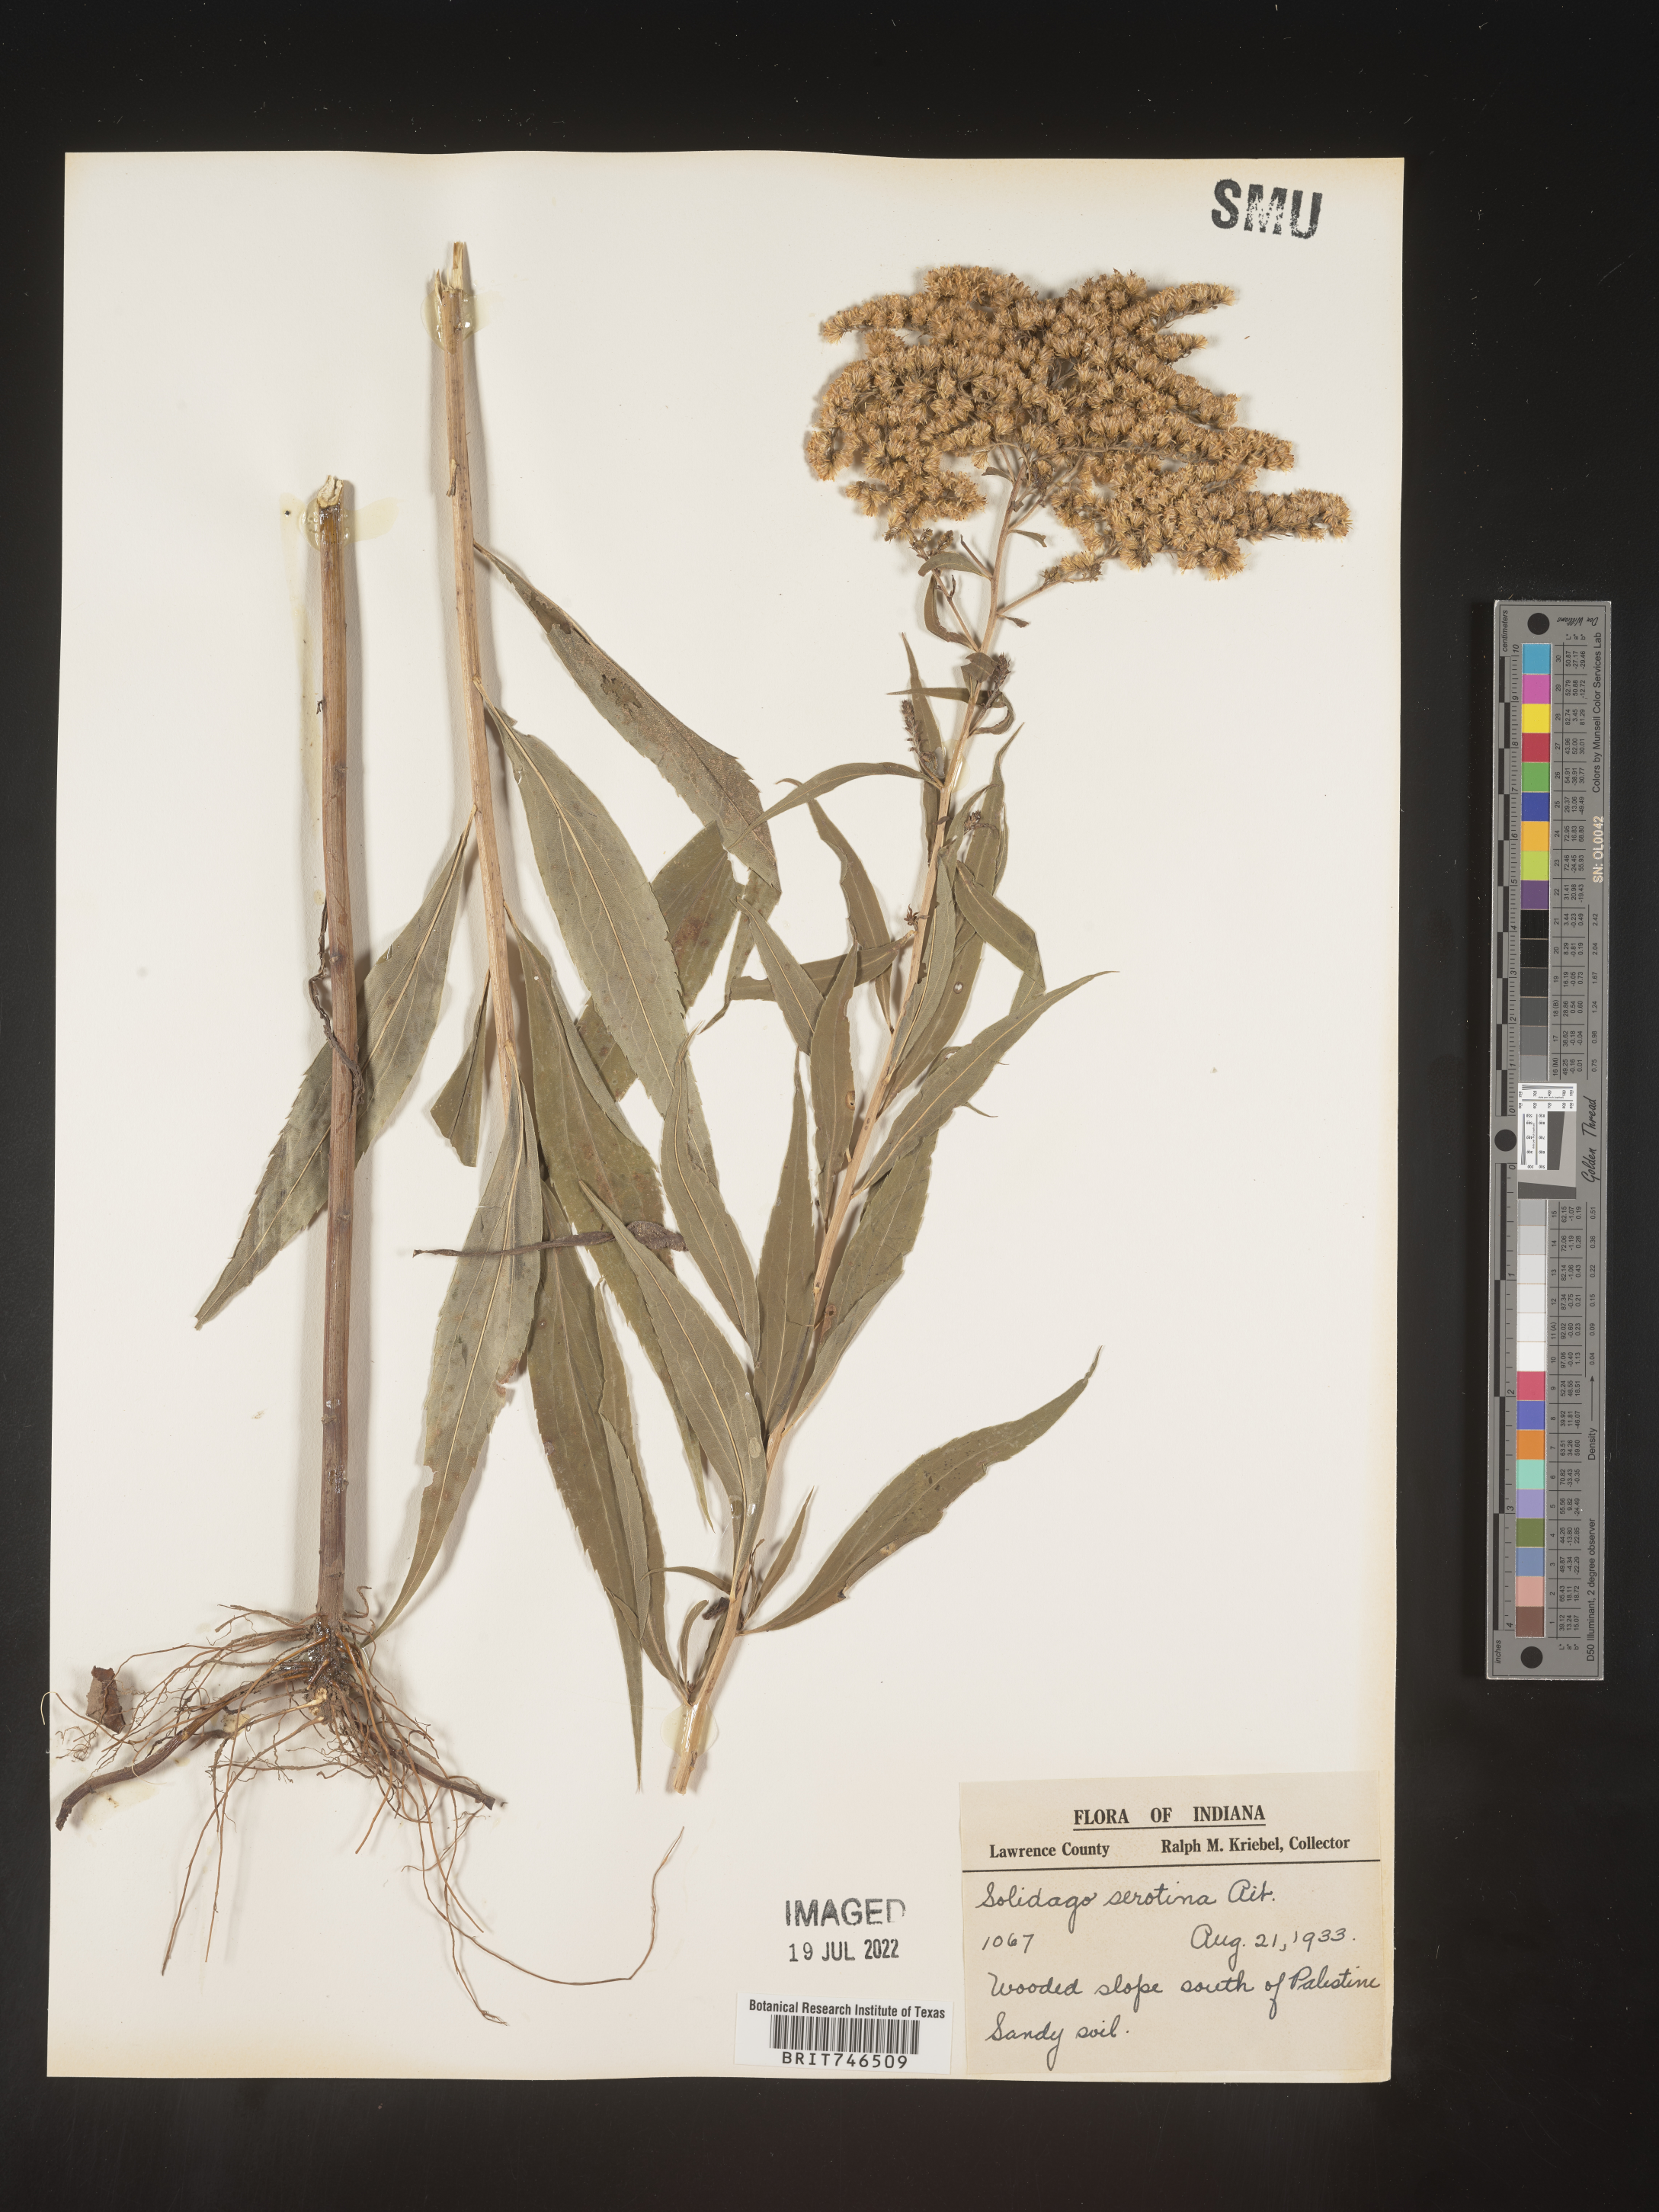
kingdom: Plantae
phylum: Tracheophyta
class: Magnoliopsida
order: Asterales
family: Asteraceae
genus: Solidago
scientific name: Solidago gigantea
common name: Giant goldenrod
